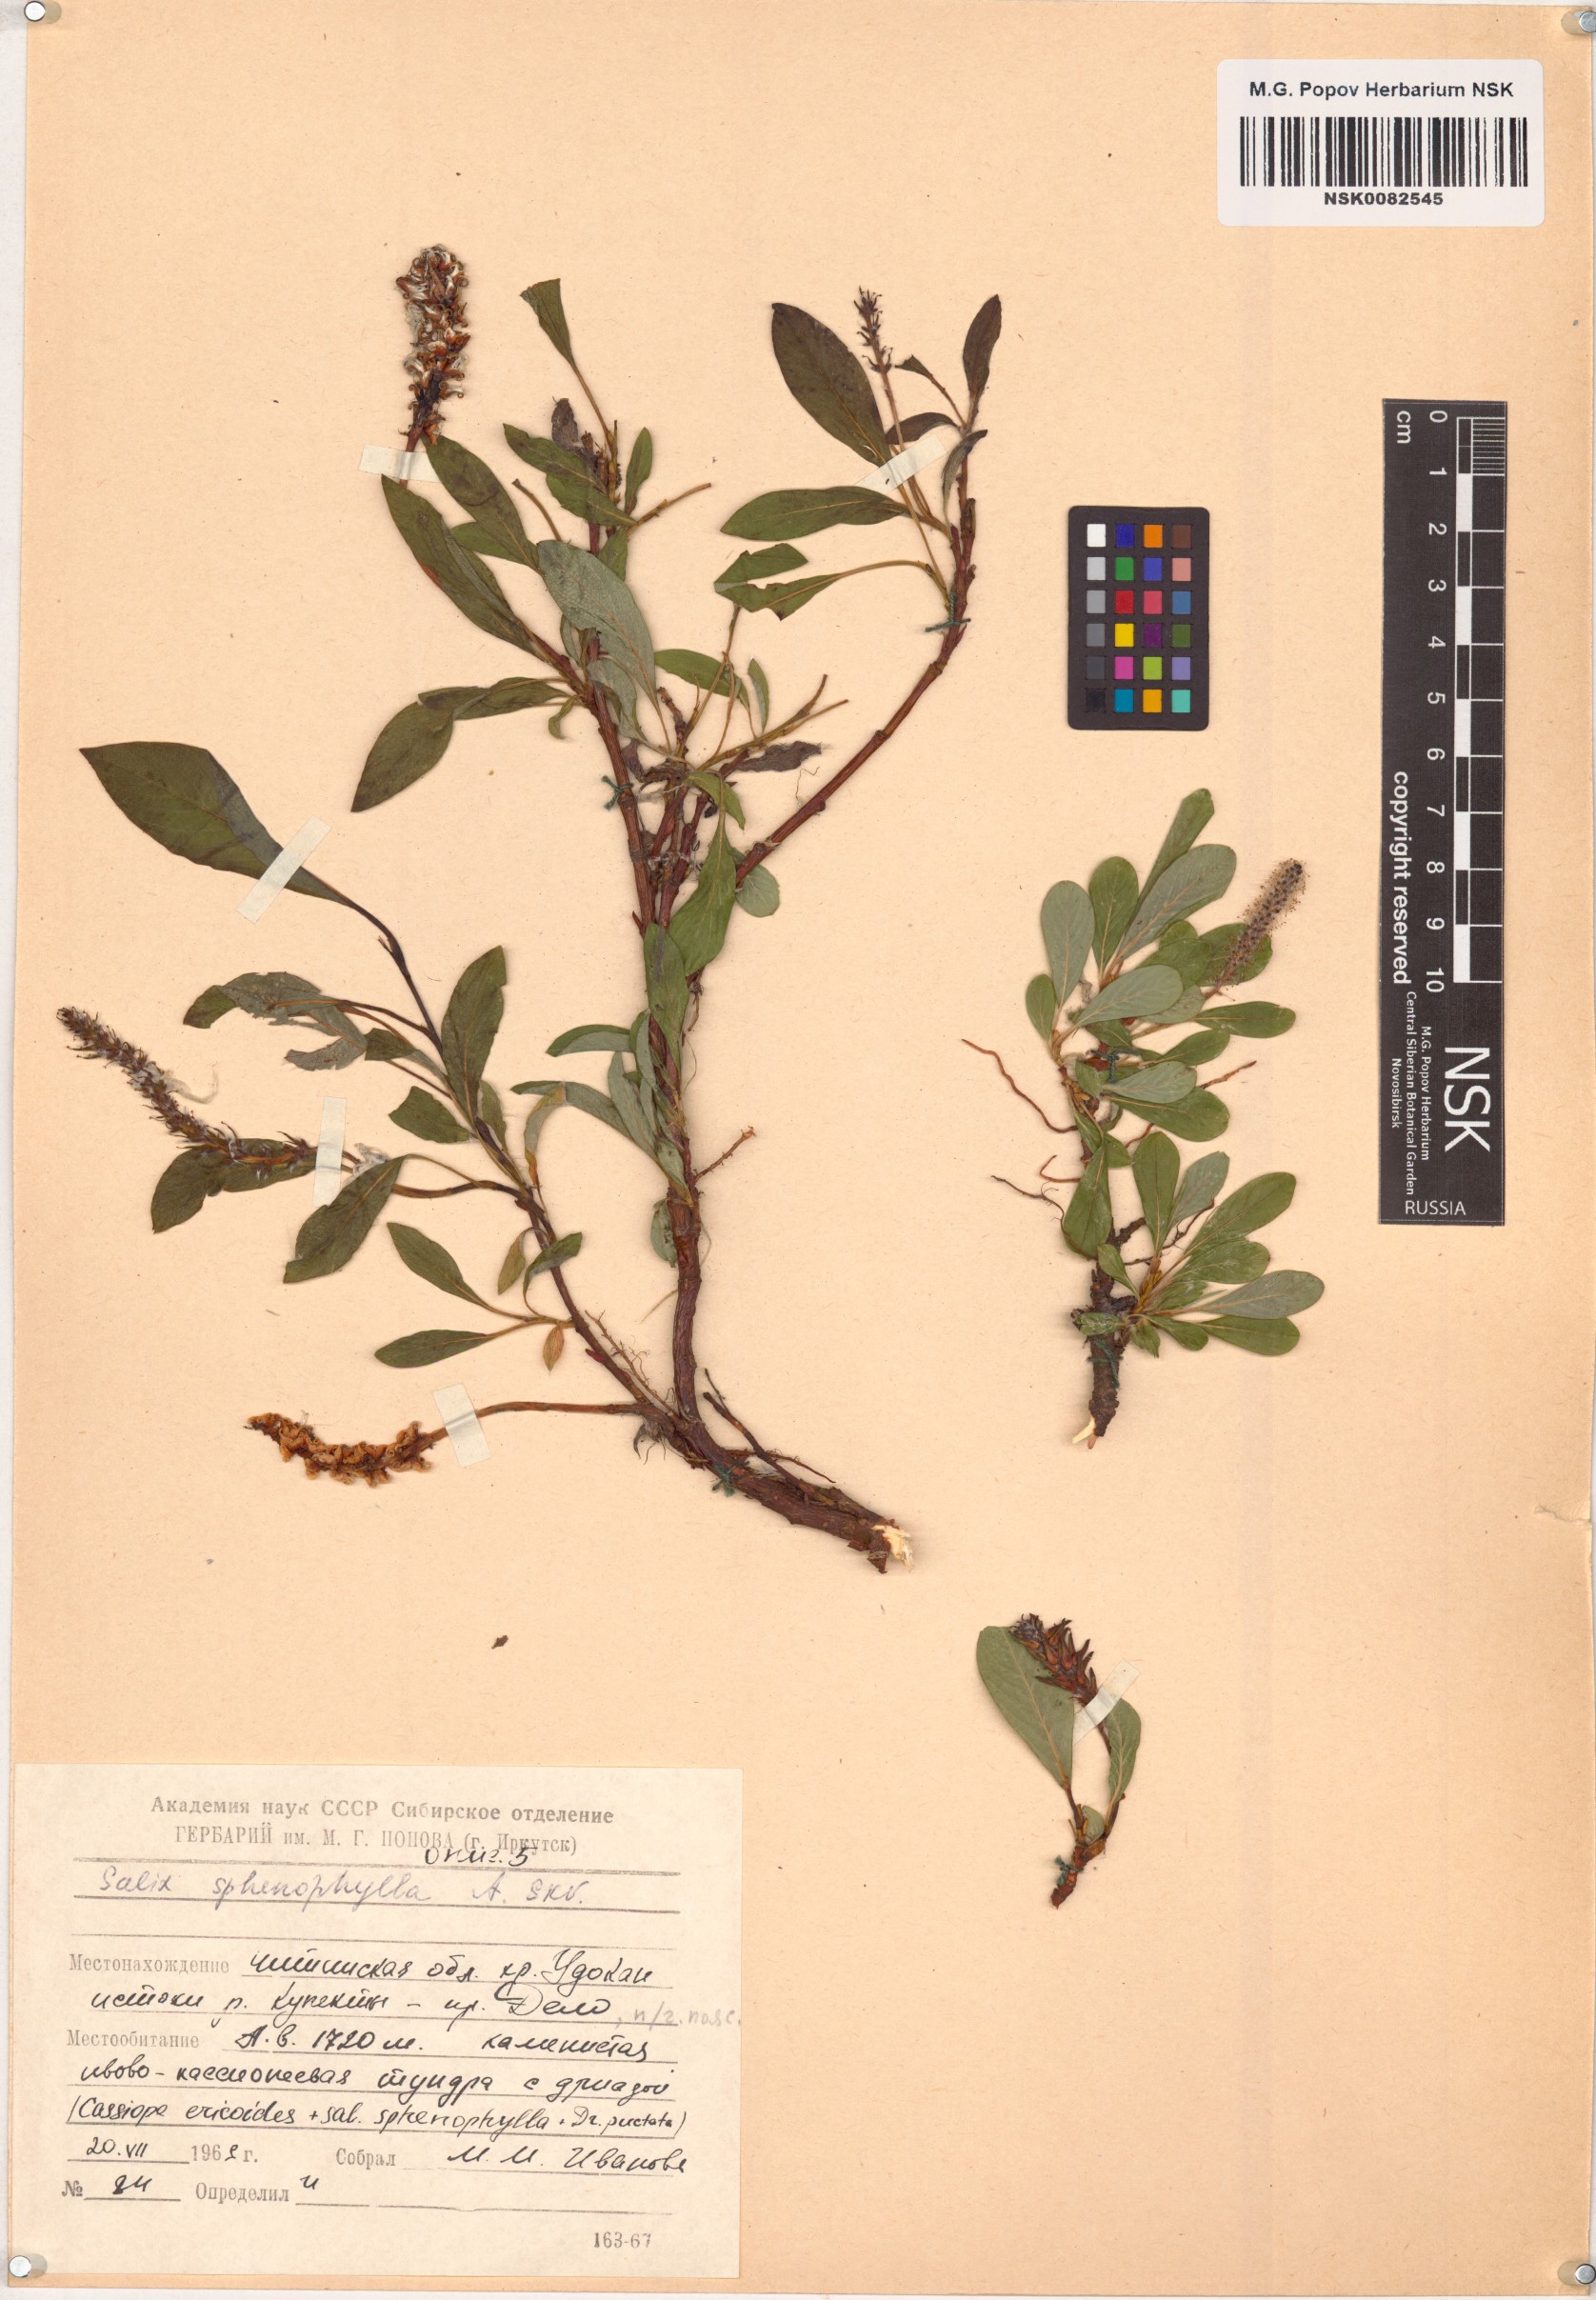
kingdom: Plantae
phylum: Tracheophyta
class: Magnoliopsida
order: Malpighiales
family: Salicaceae
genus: Salix
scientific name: Salix sphenophylla
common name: Wedge-leaved willow
